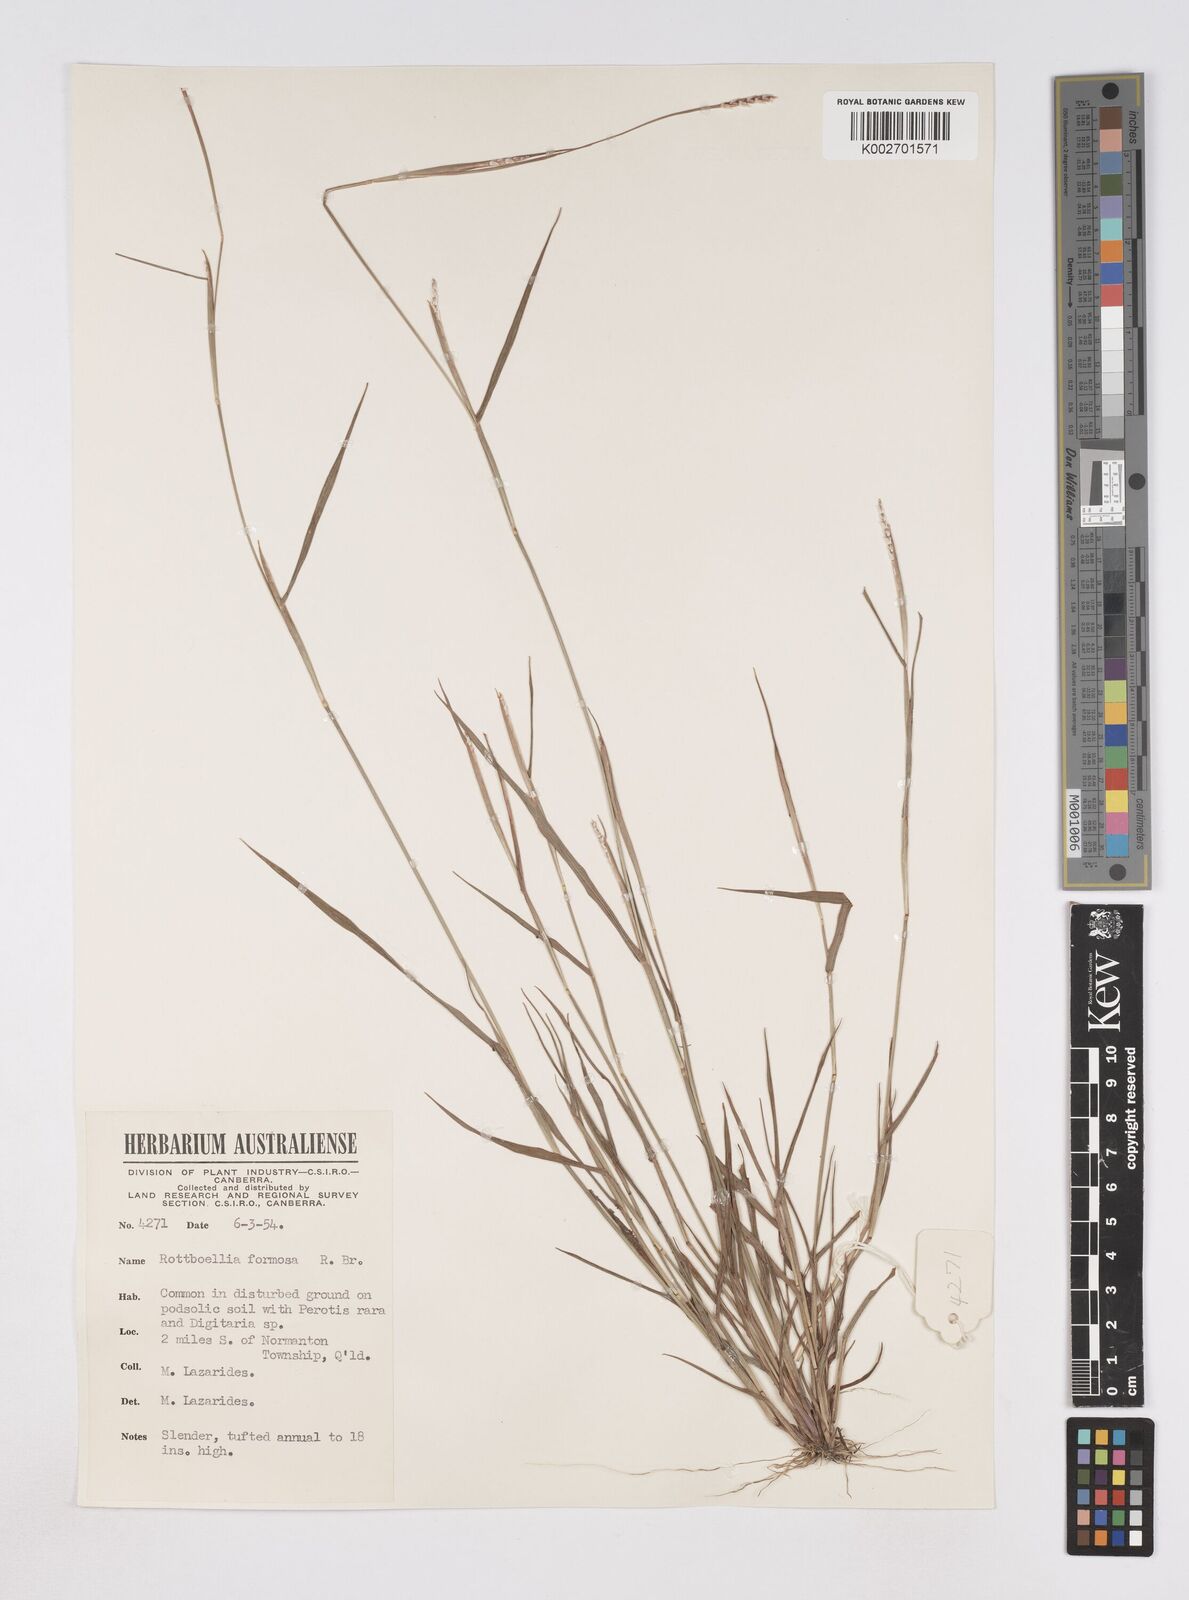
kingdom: Plantae
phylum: Tracheophyta
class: Liliopsida
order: Poales
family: Poaceae
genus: Heteropholis
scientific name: Heteropholis
